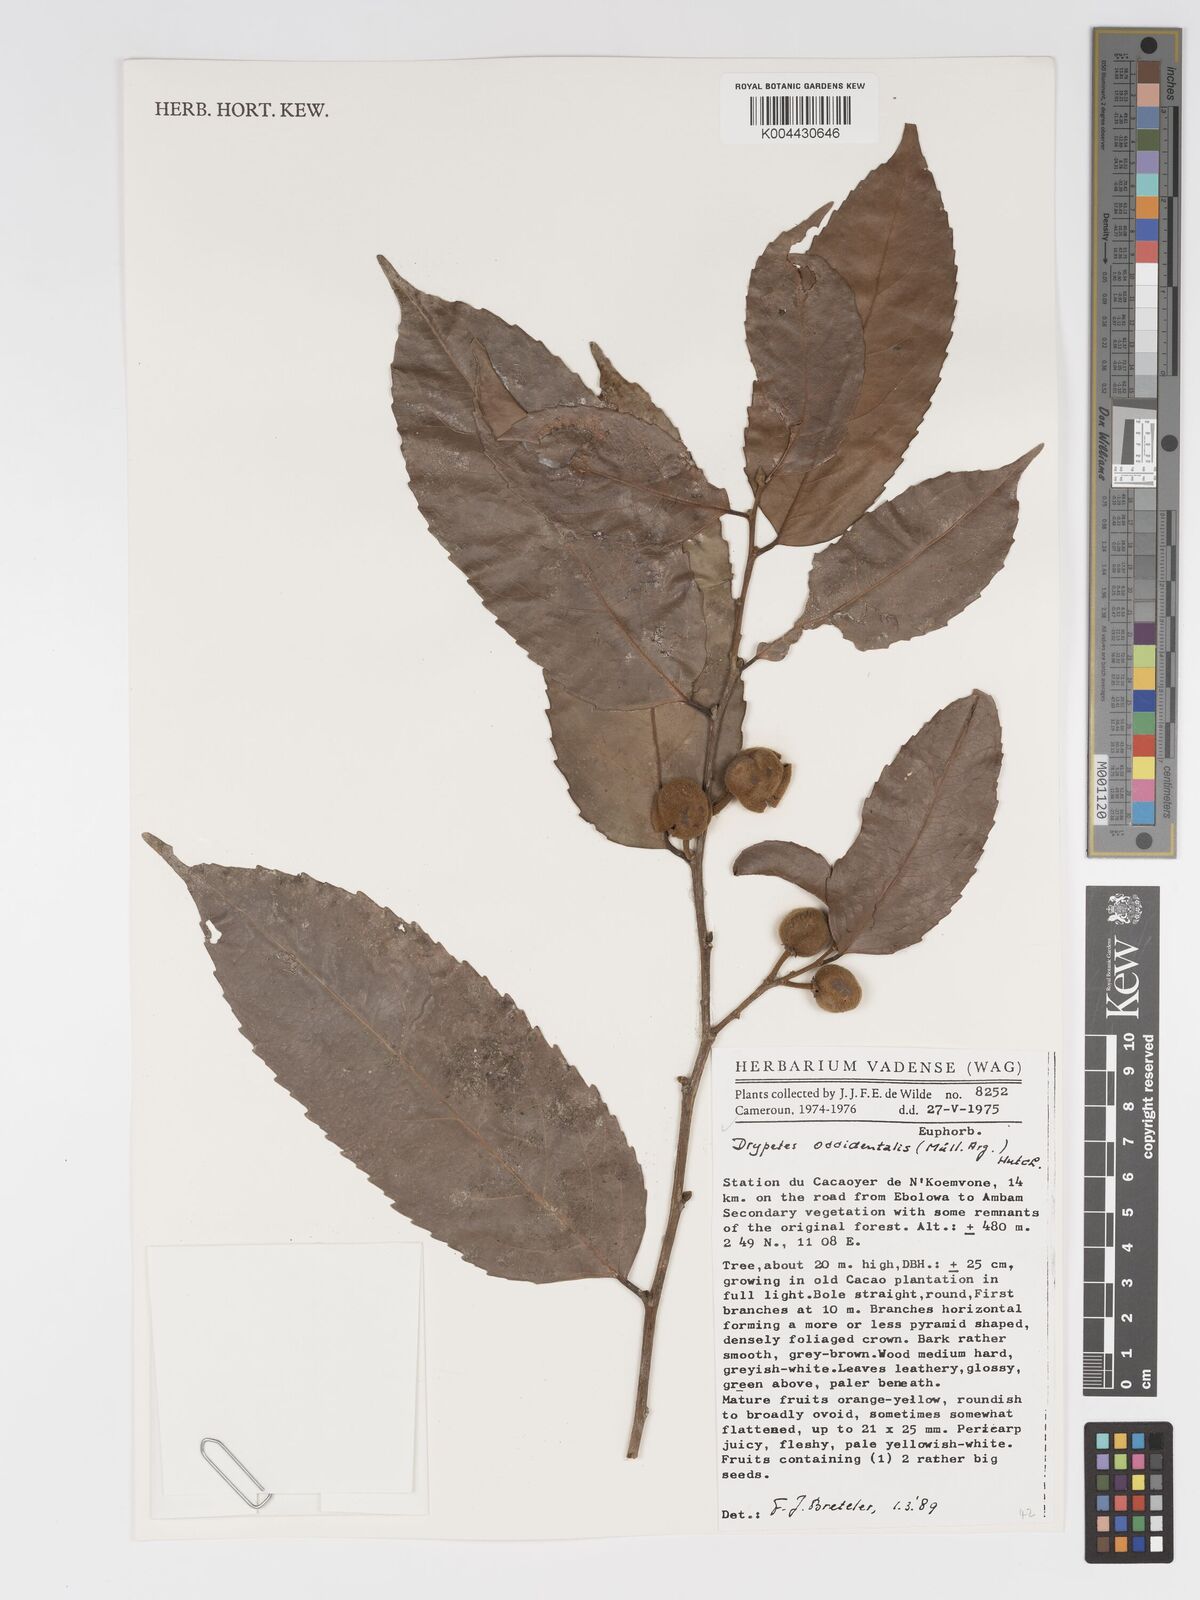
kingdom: Plantae
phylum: Tracheophyta
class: Magnoliopsida
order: Malpighiales
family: Putranjivaceae
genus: Drypetes
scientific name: Drypetes occidentalis
